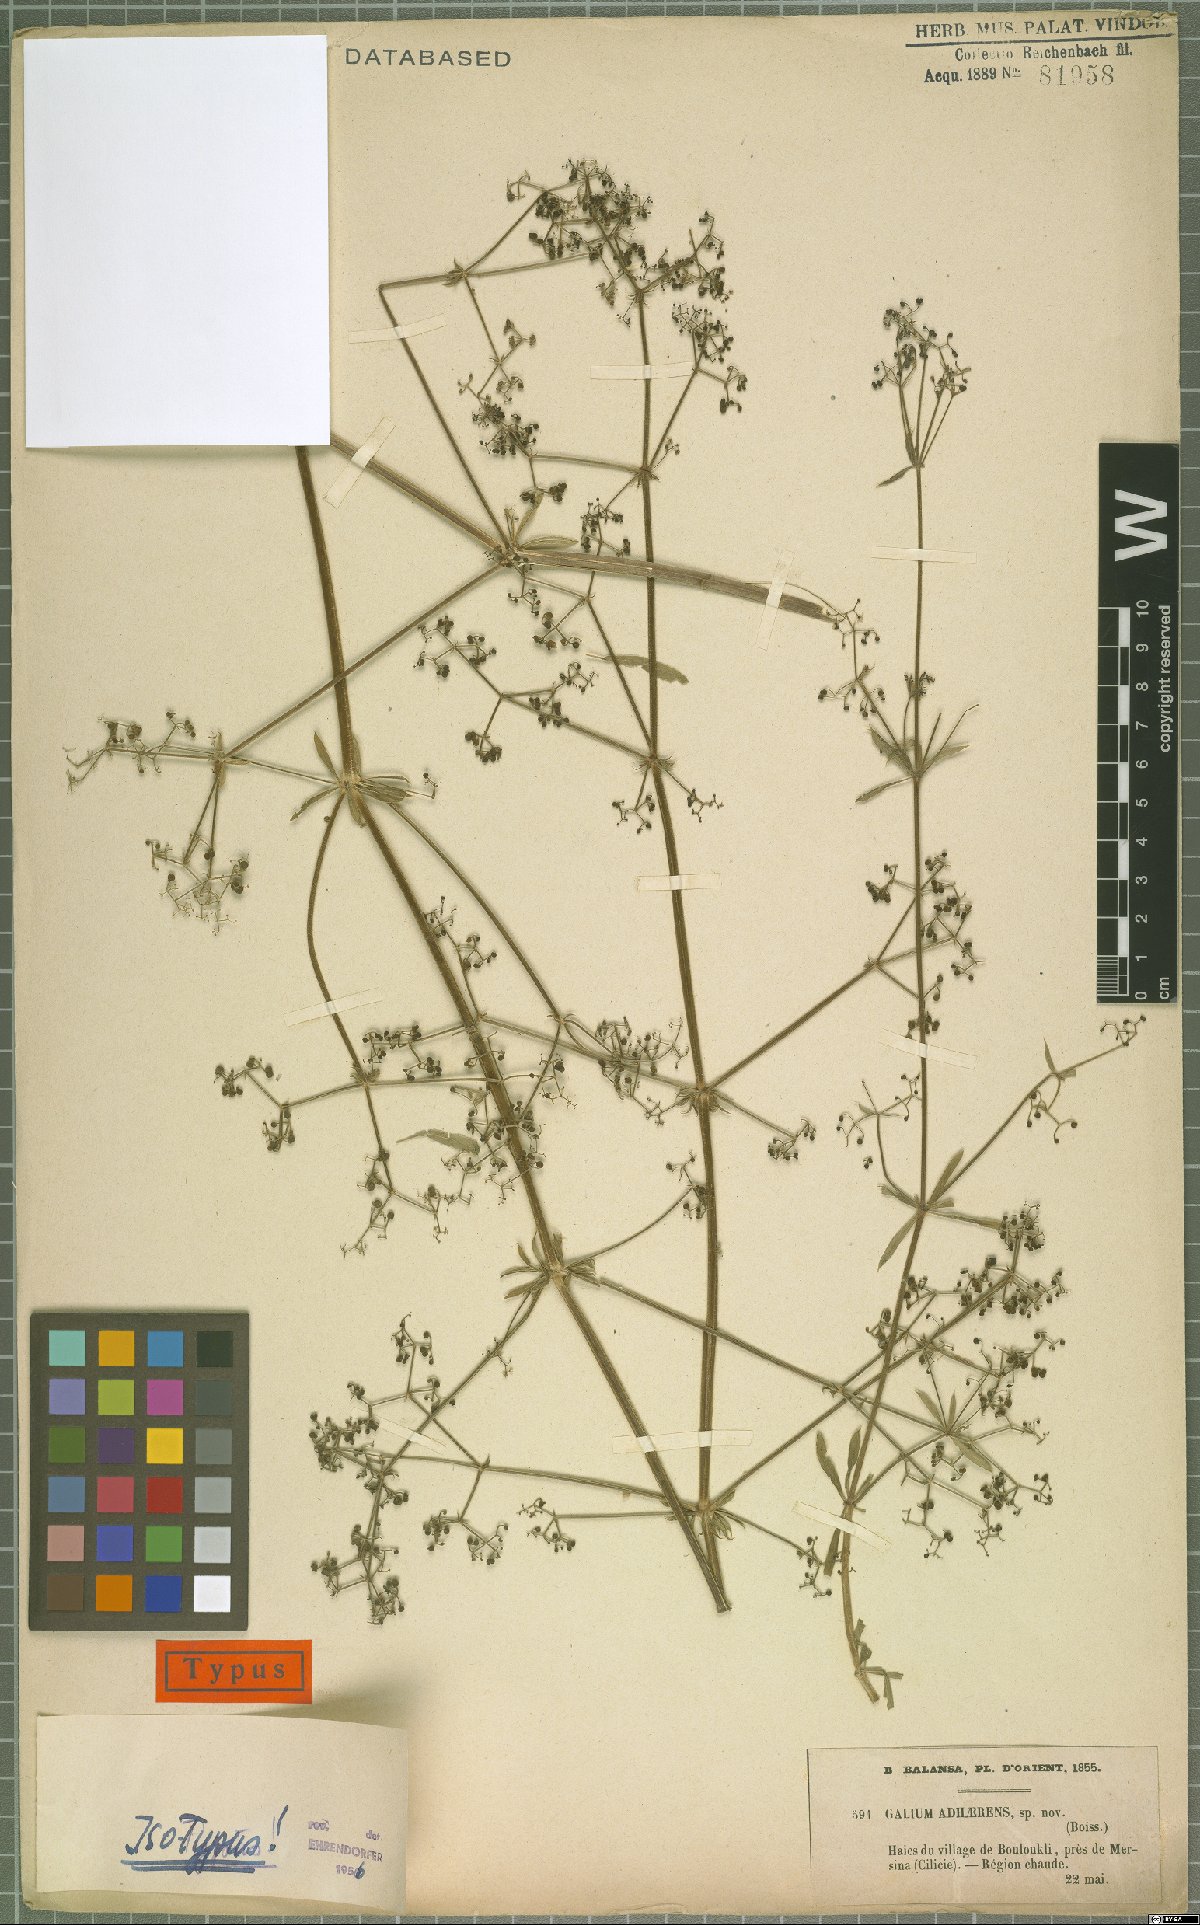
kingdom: Plantae
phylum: Tracheophyta
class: Magnoliopsida
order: Gentianales
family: Rubiaceae
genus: Galium
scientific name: Galium adhaerens
